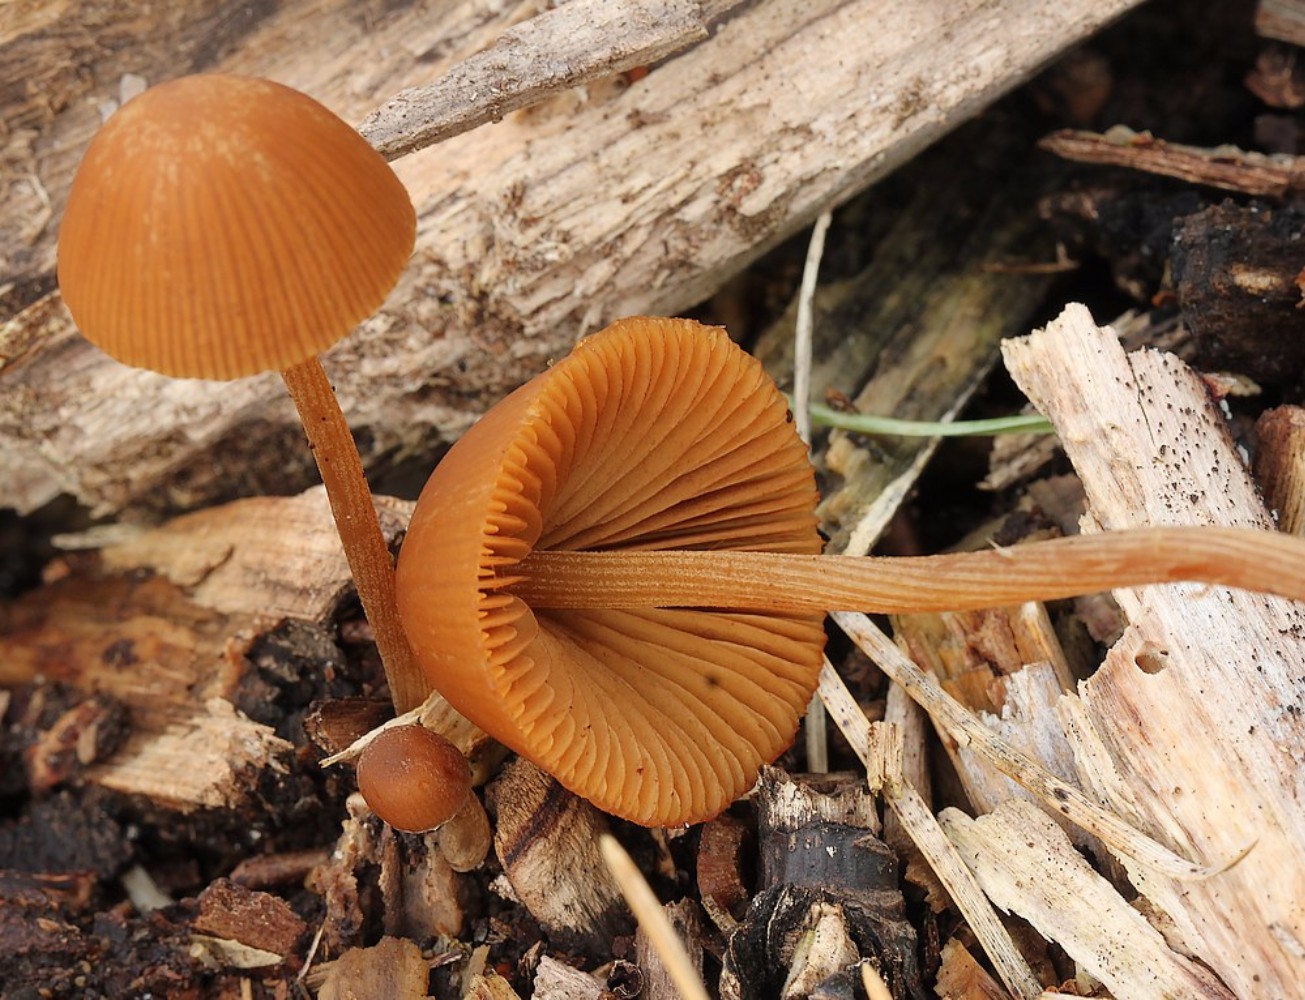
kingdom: Fungi
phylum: Basidiomycota
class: Agaricomycetes
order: Agaricales
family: Bolbitiaceae
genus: Conocybe
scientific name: Conocybe
